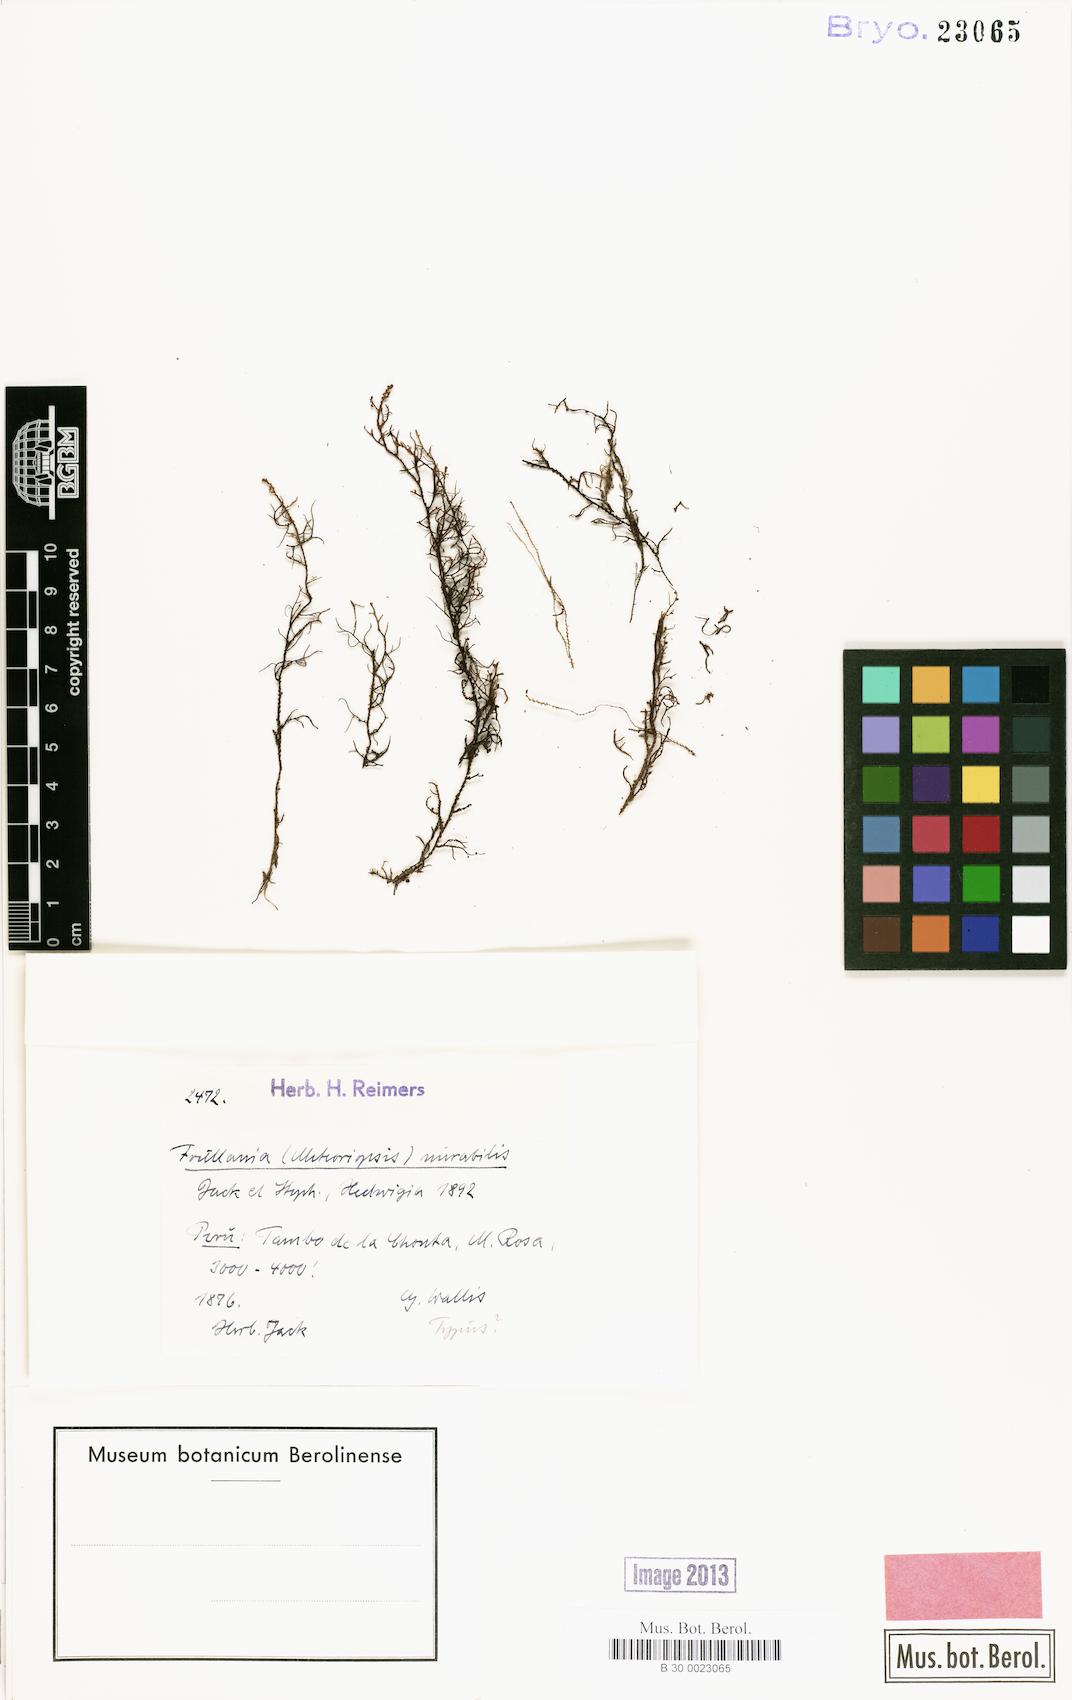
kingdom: Plantae
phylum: Marchantiophyta
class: Jungermanniopsida
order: Porellales
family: Frullaniaceae
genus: Frullania
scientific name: Frullania mirabilis
